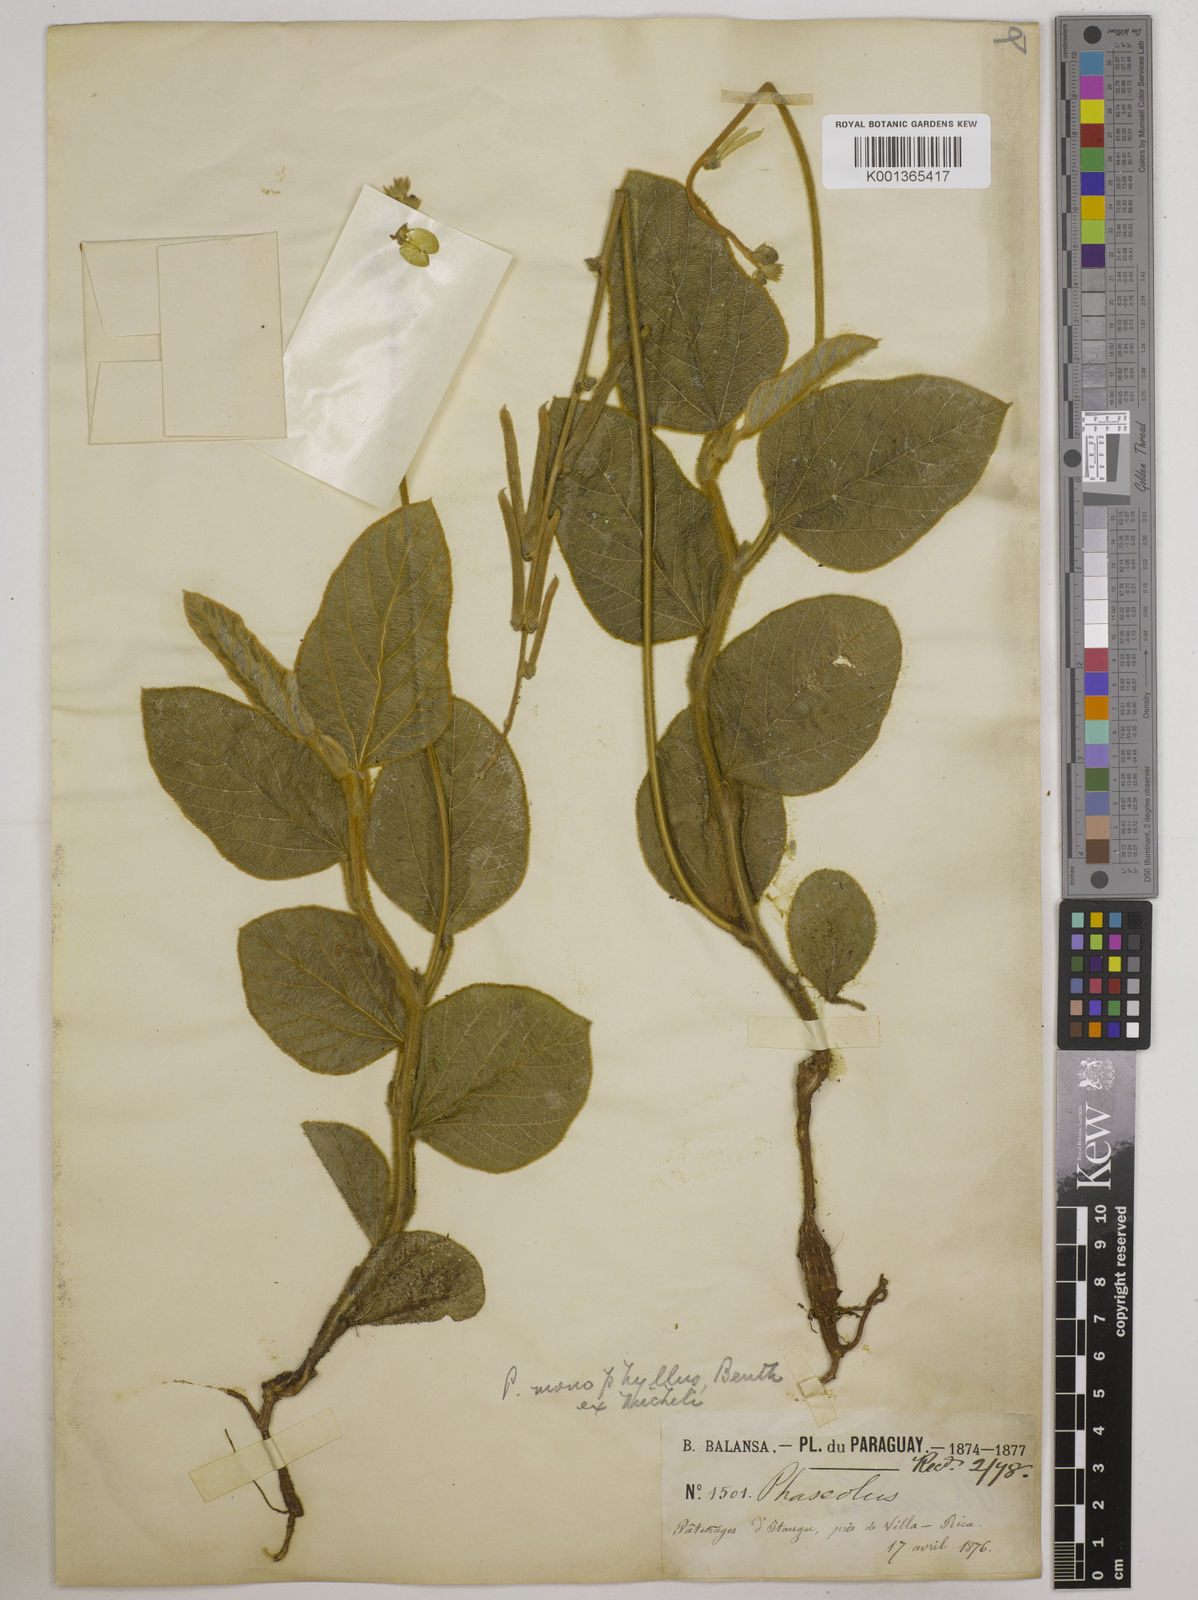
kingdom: Plantae
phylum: Tracheophyta
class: Magnoliopsida
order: Fabales
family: Fabaceae
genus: Macroptilium
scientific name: Macroptilium monophyllum
